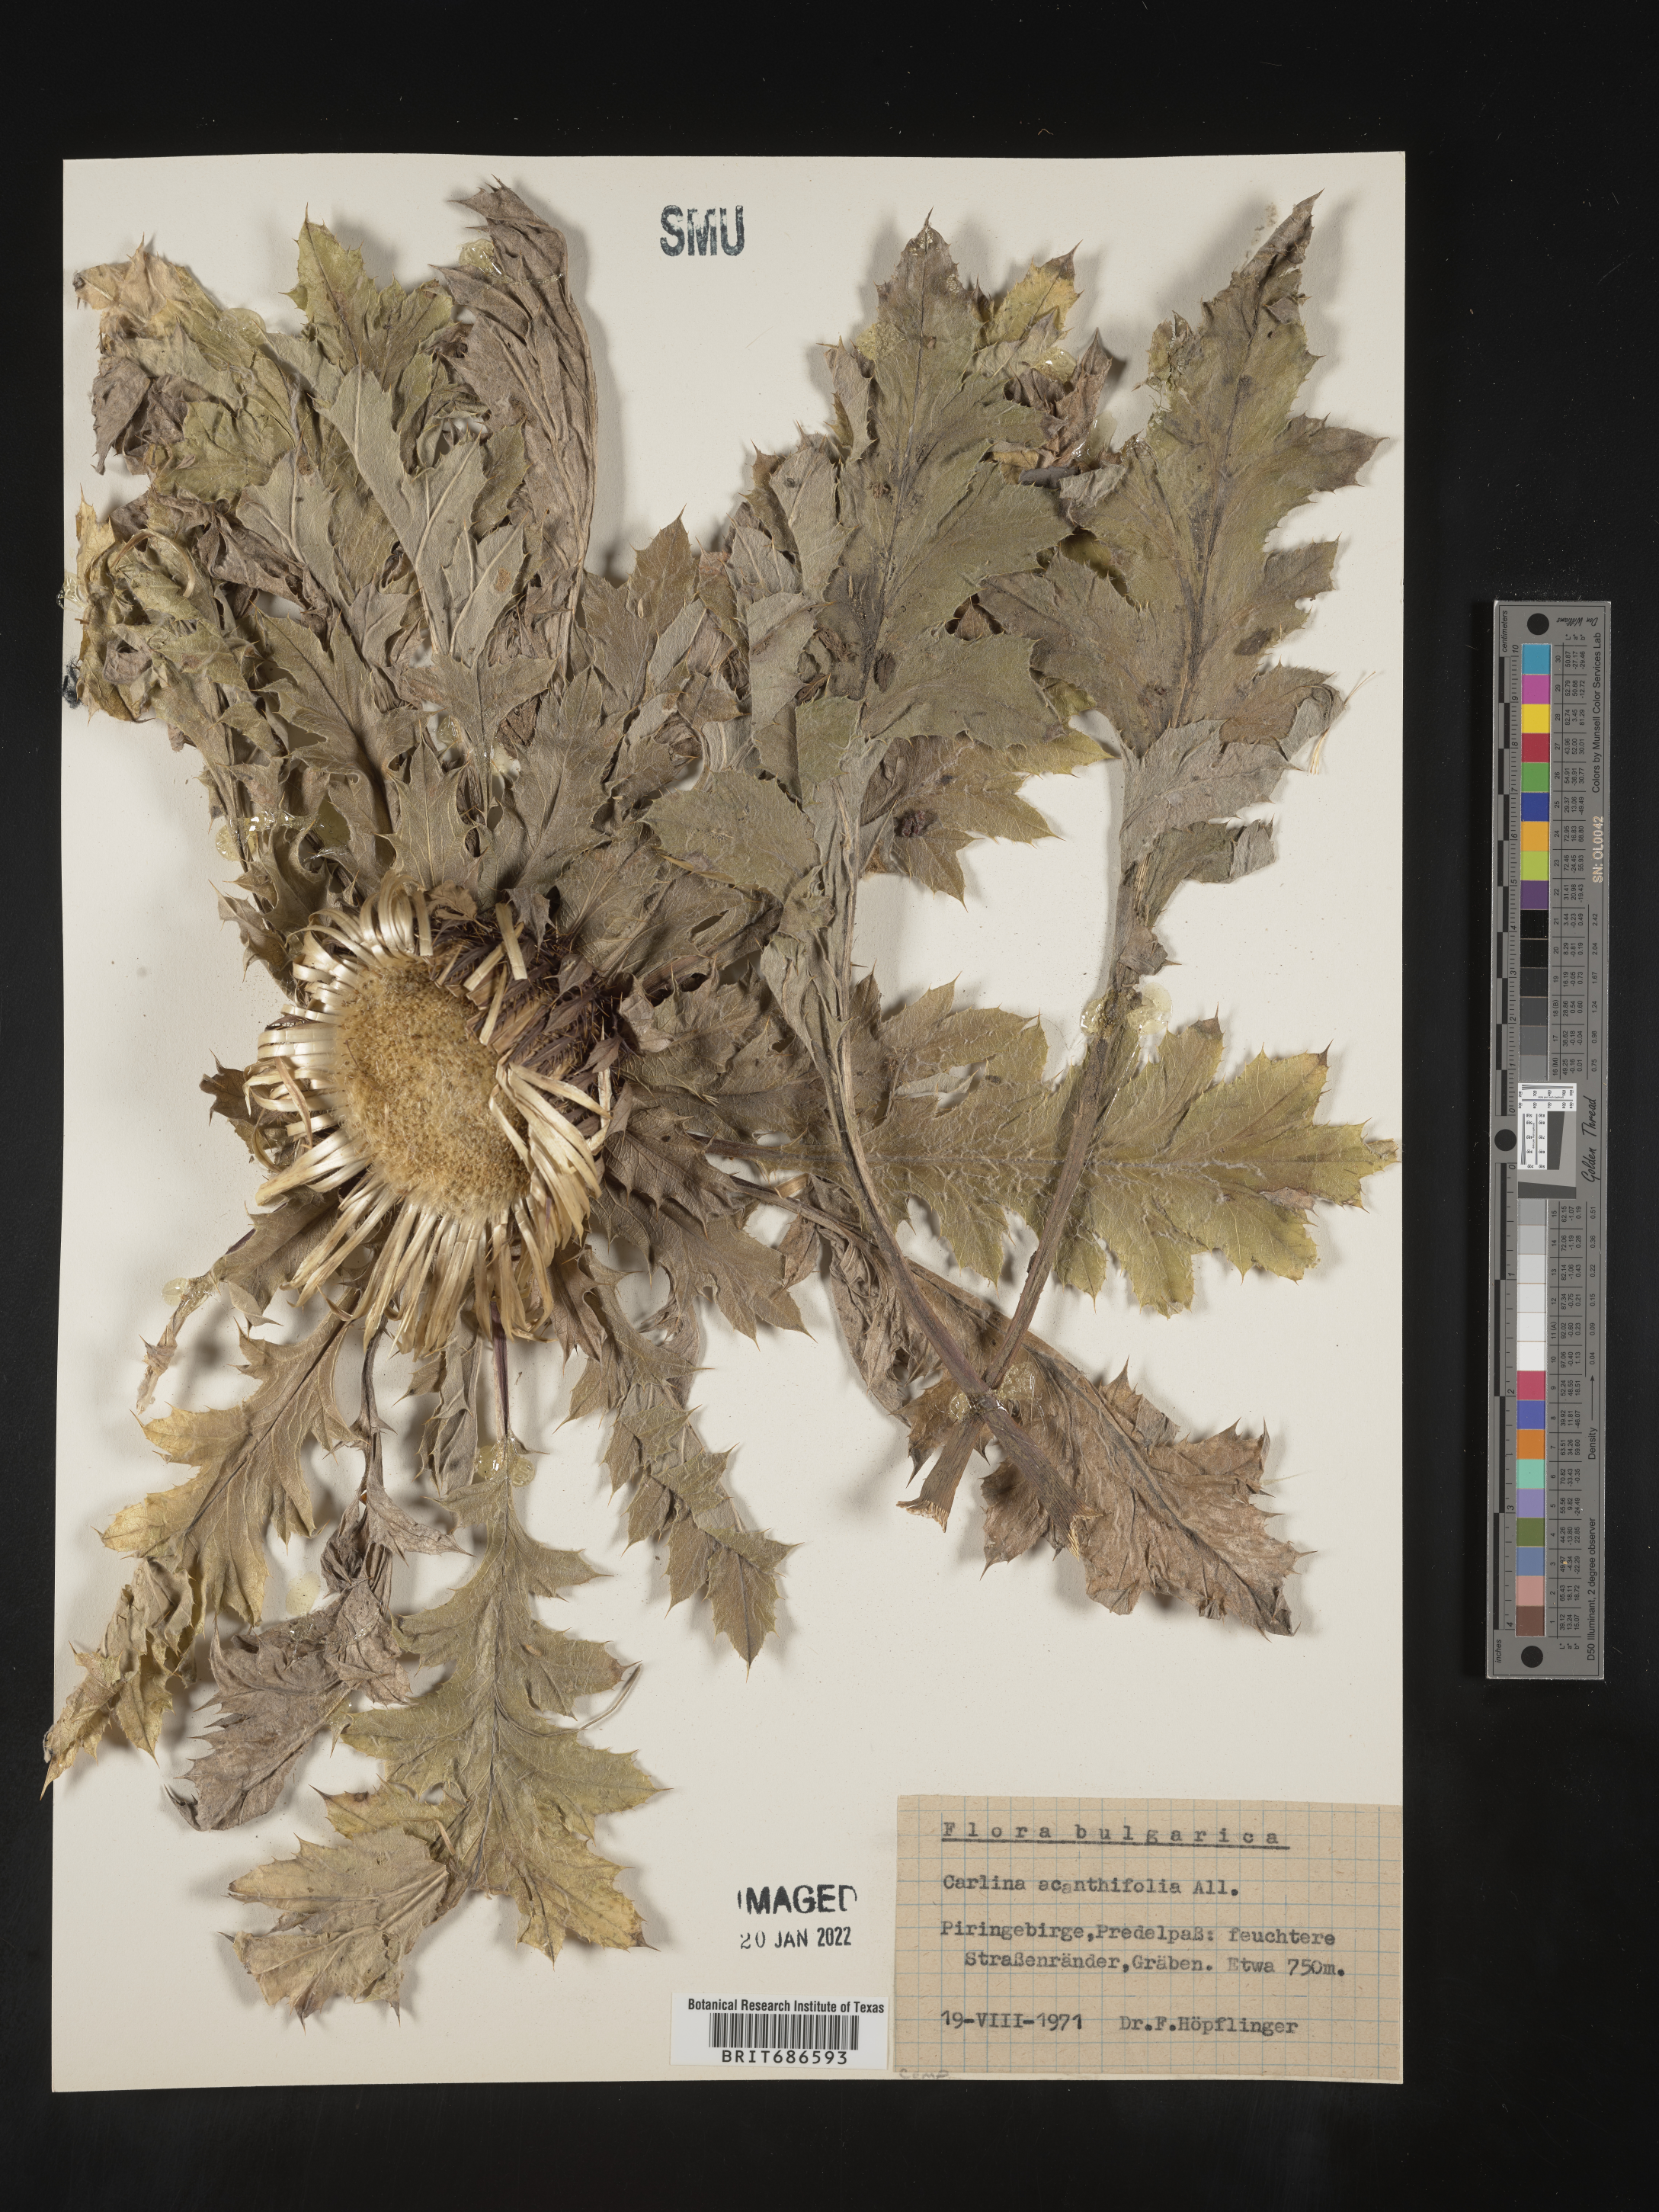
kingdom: Plantae
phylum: Tracheophyta
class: Magnoliopsida
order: Asterales
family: Asteraceae
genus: Carlina
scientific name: Carlina
